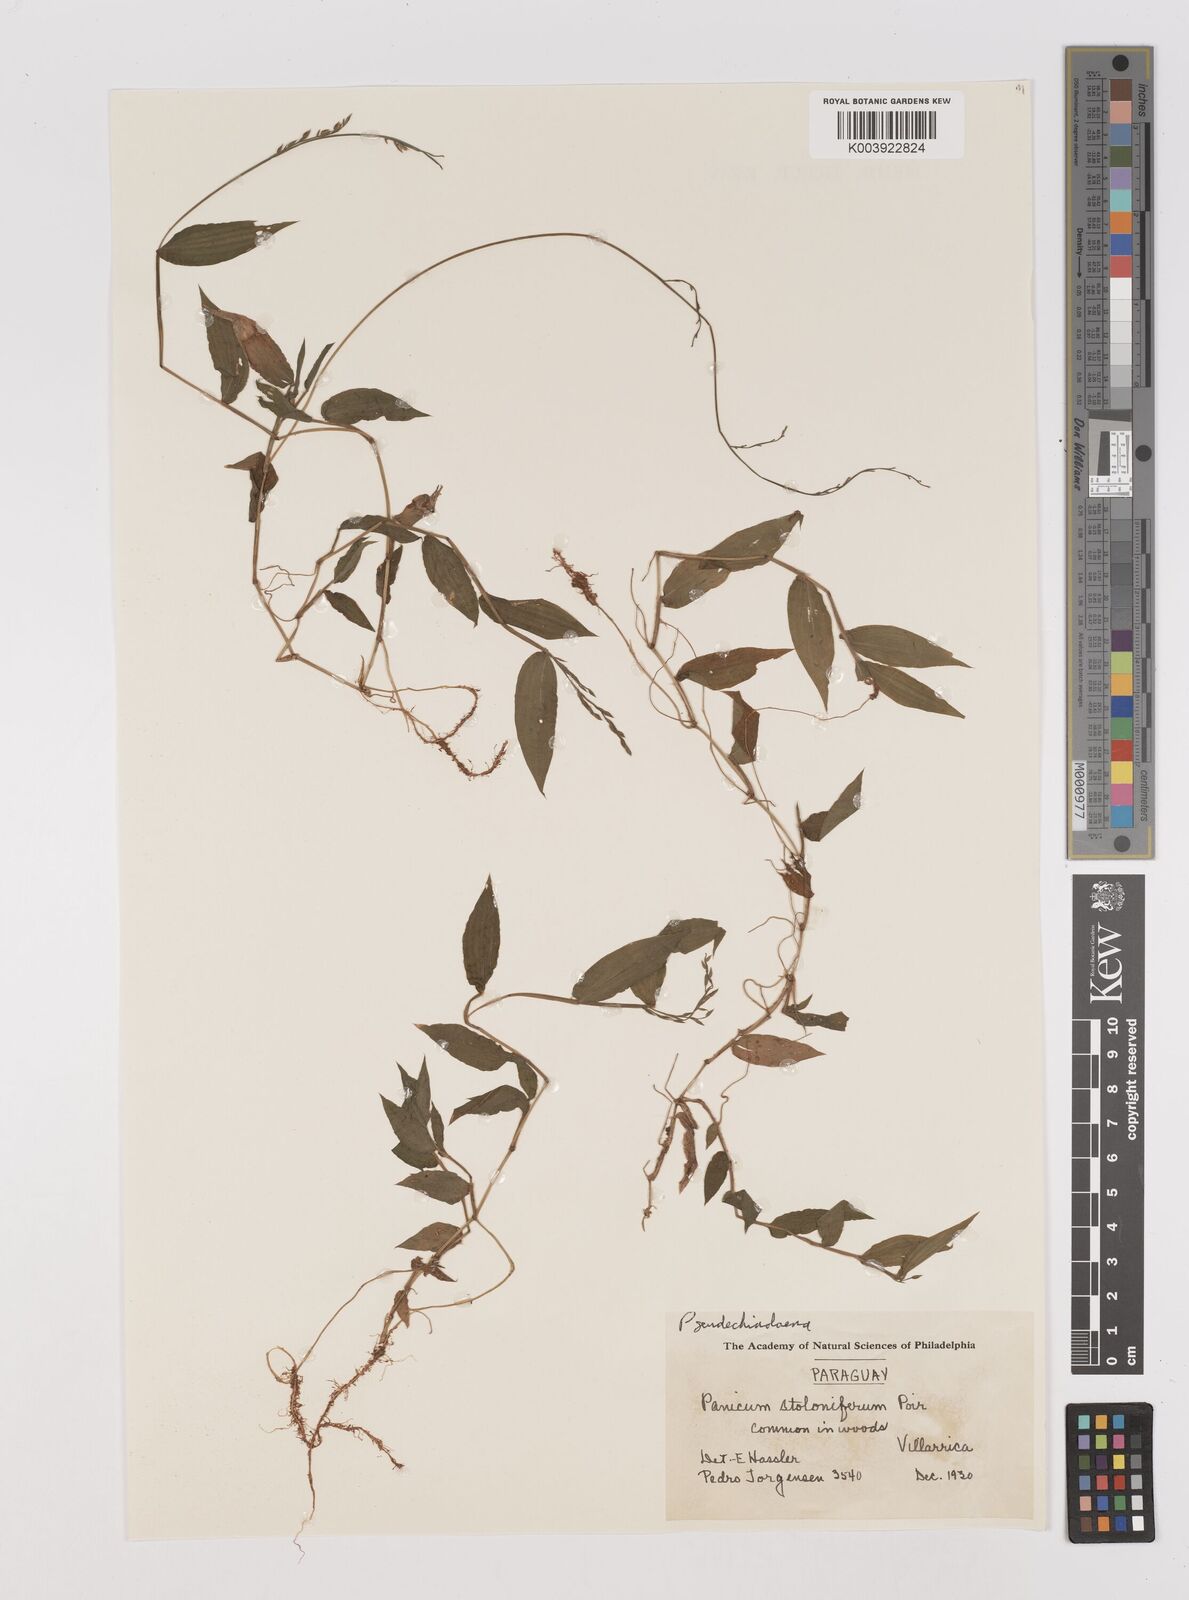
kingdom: Plantae
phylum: Tracheophyta
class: Liliopsida
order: Poales
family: Poaceae
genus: Pseudechinolaena
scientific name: Pseudechinolaena polystachya
